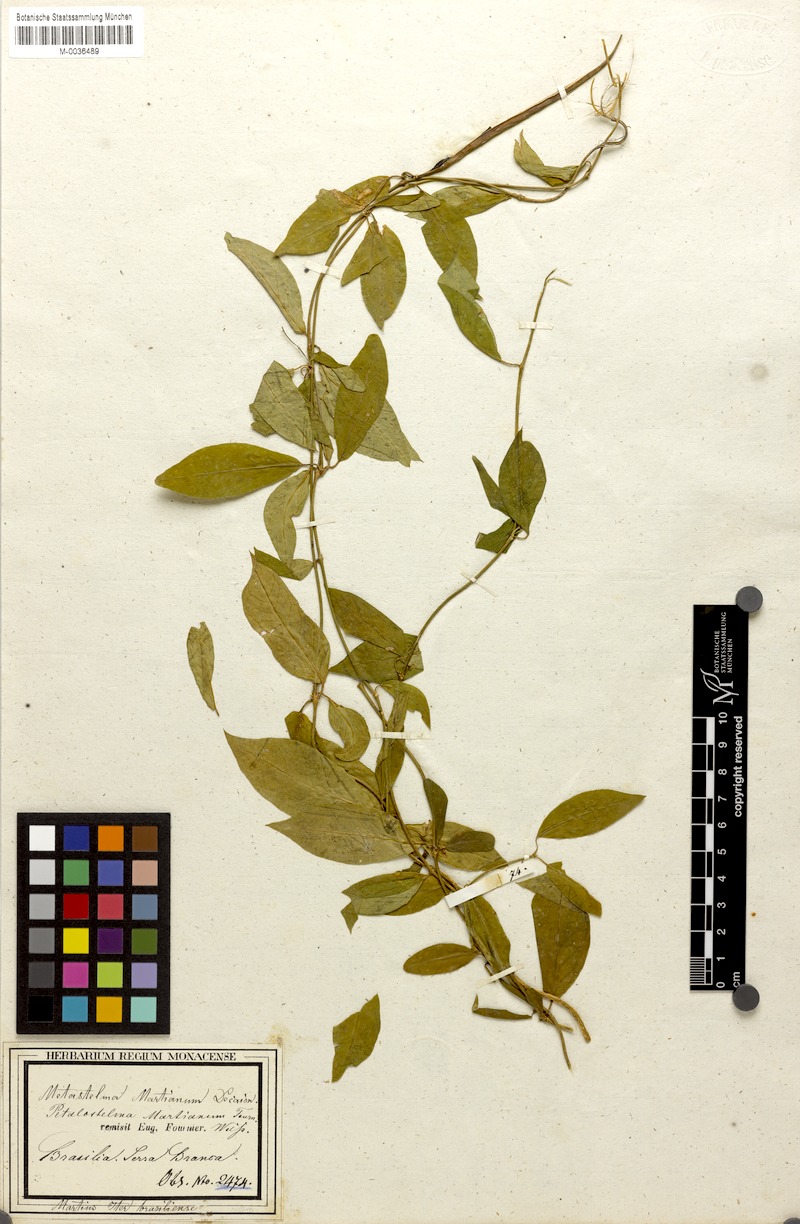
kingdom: Plantae
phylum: Tracheophyta
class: Magnoliopsida
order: Gentianales
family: Apocynaceae
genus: Petalostelma
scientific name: Petalostelma martianum
